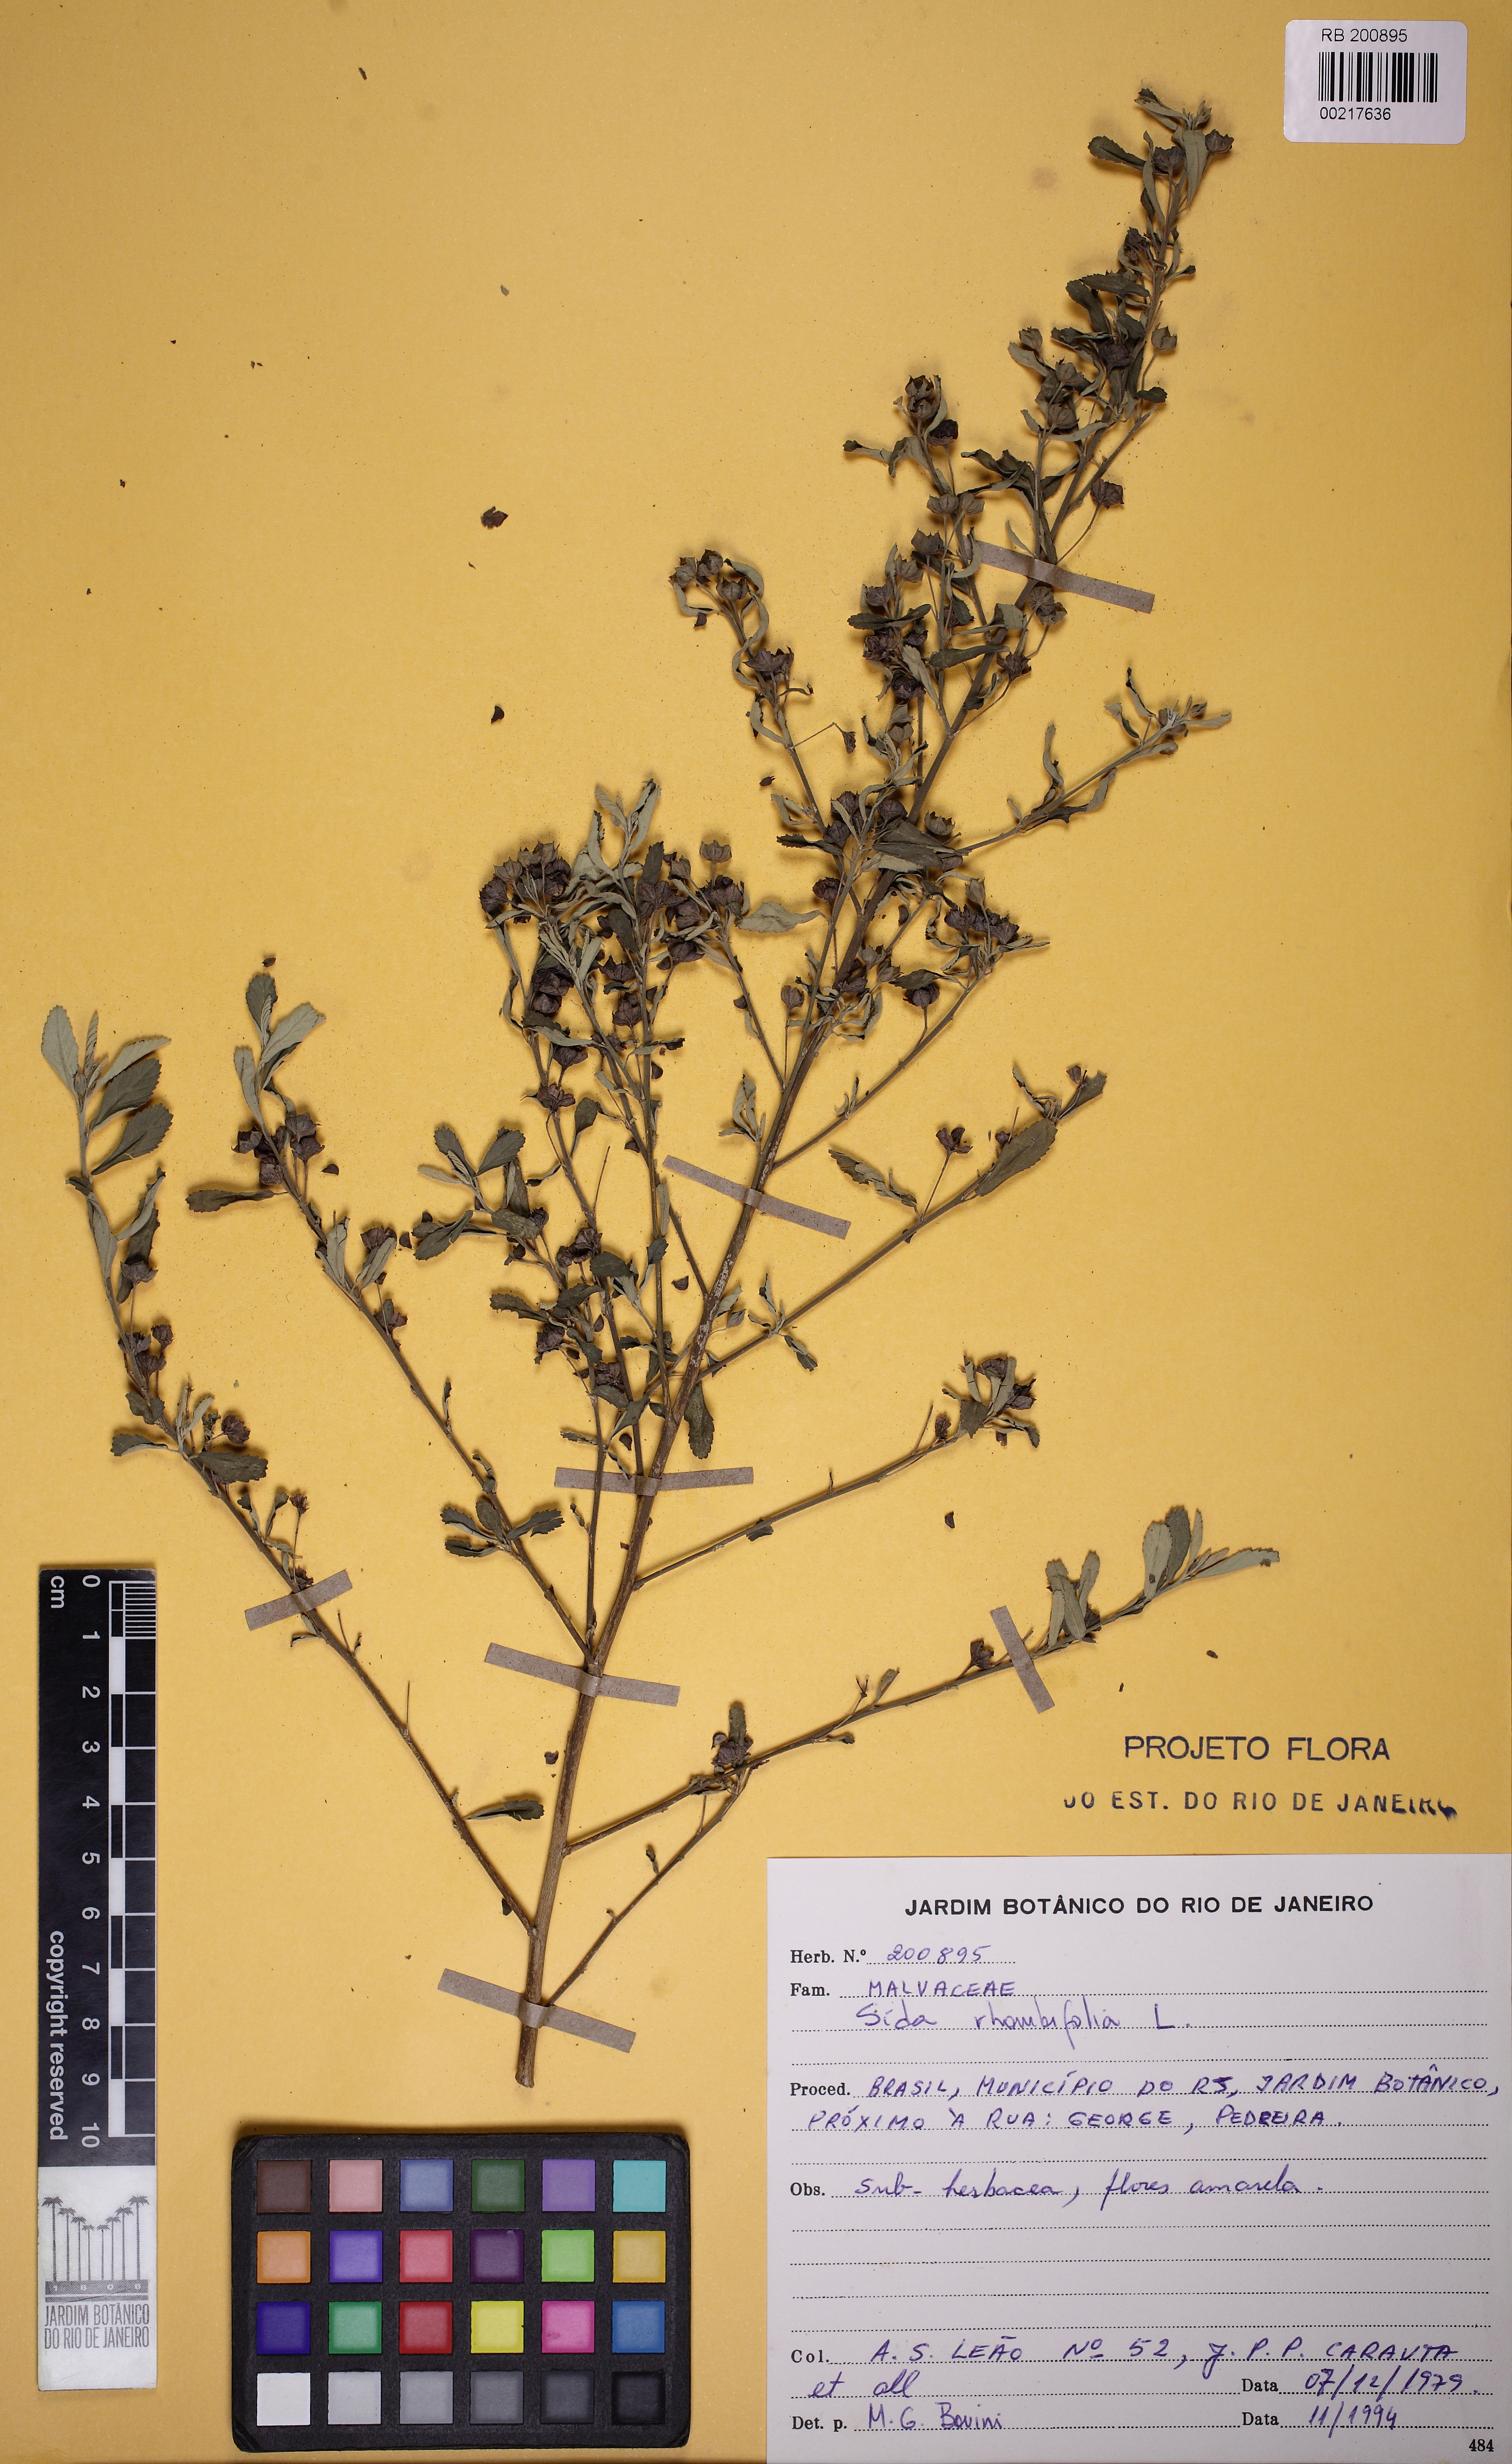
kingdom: Plantae
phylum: Tracheophyta
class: Magnoliopsida
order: Malvales
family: Malvaceae
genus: Sida
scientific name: Sida rhombifolia
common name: Queensland-hemp
